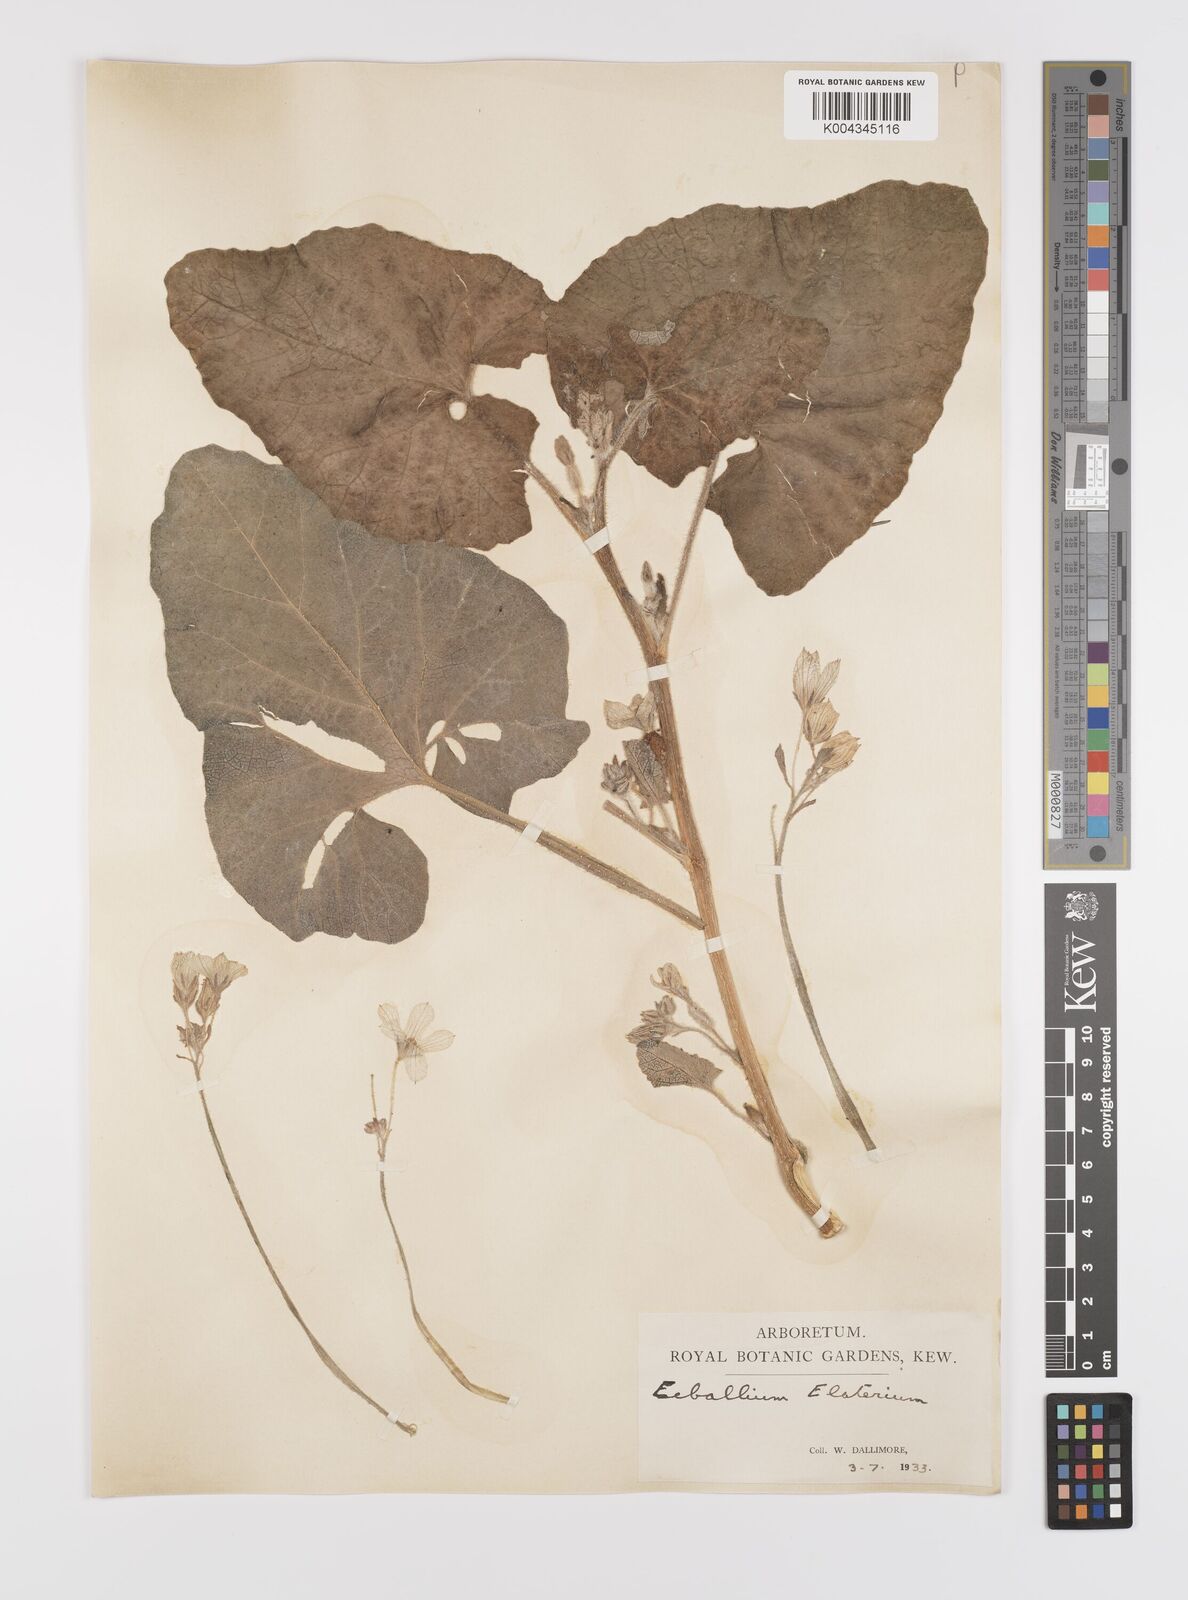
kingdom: Plantae
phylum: Tracheophyta
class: Magnoliopsida
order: Cucurbitales
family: Cucurbitaceae
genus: Ecballium
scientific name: Ecballium elaterium
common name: Squirting cucumber
